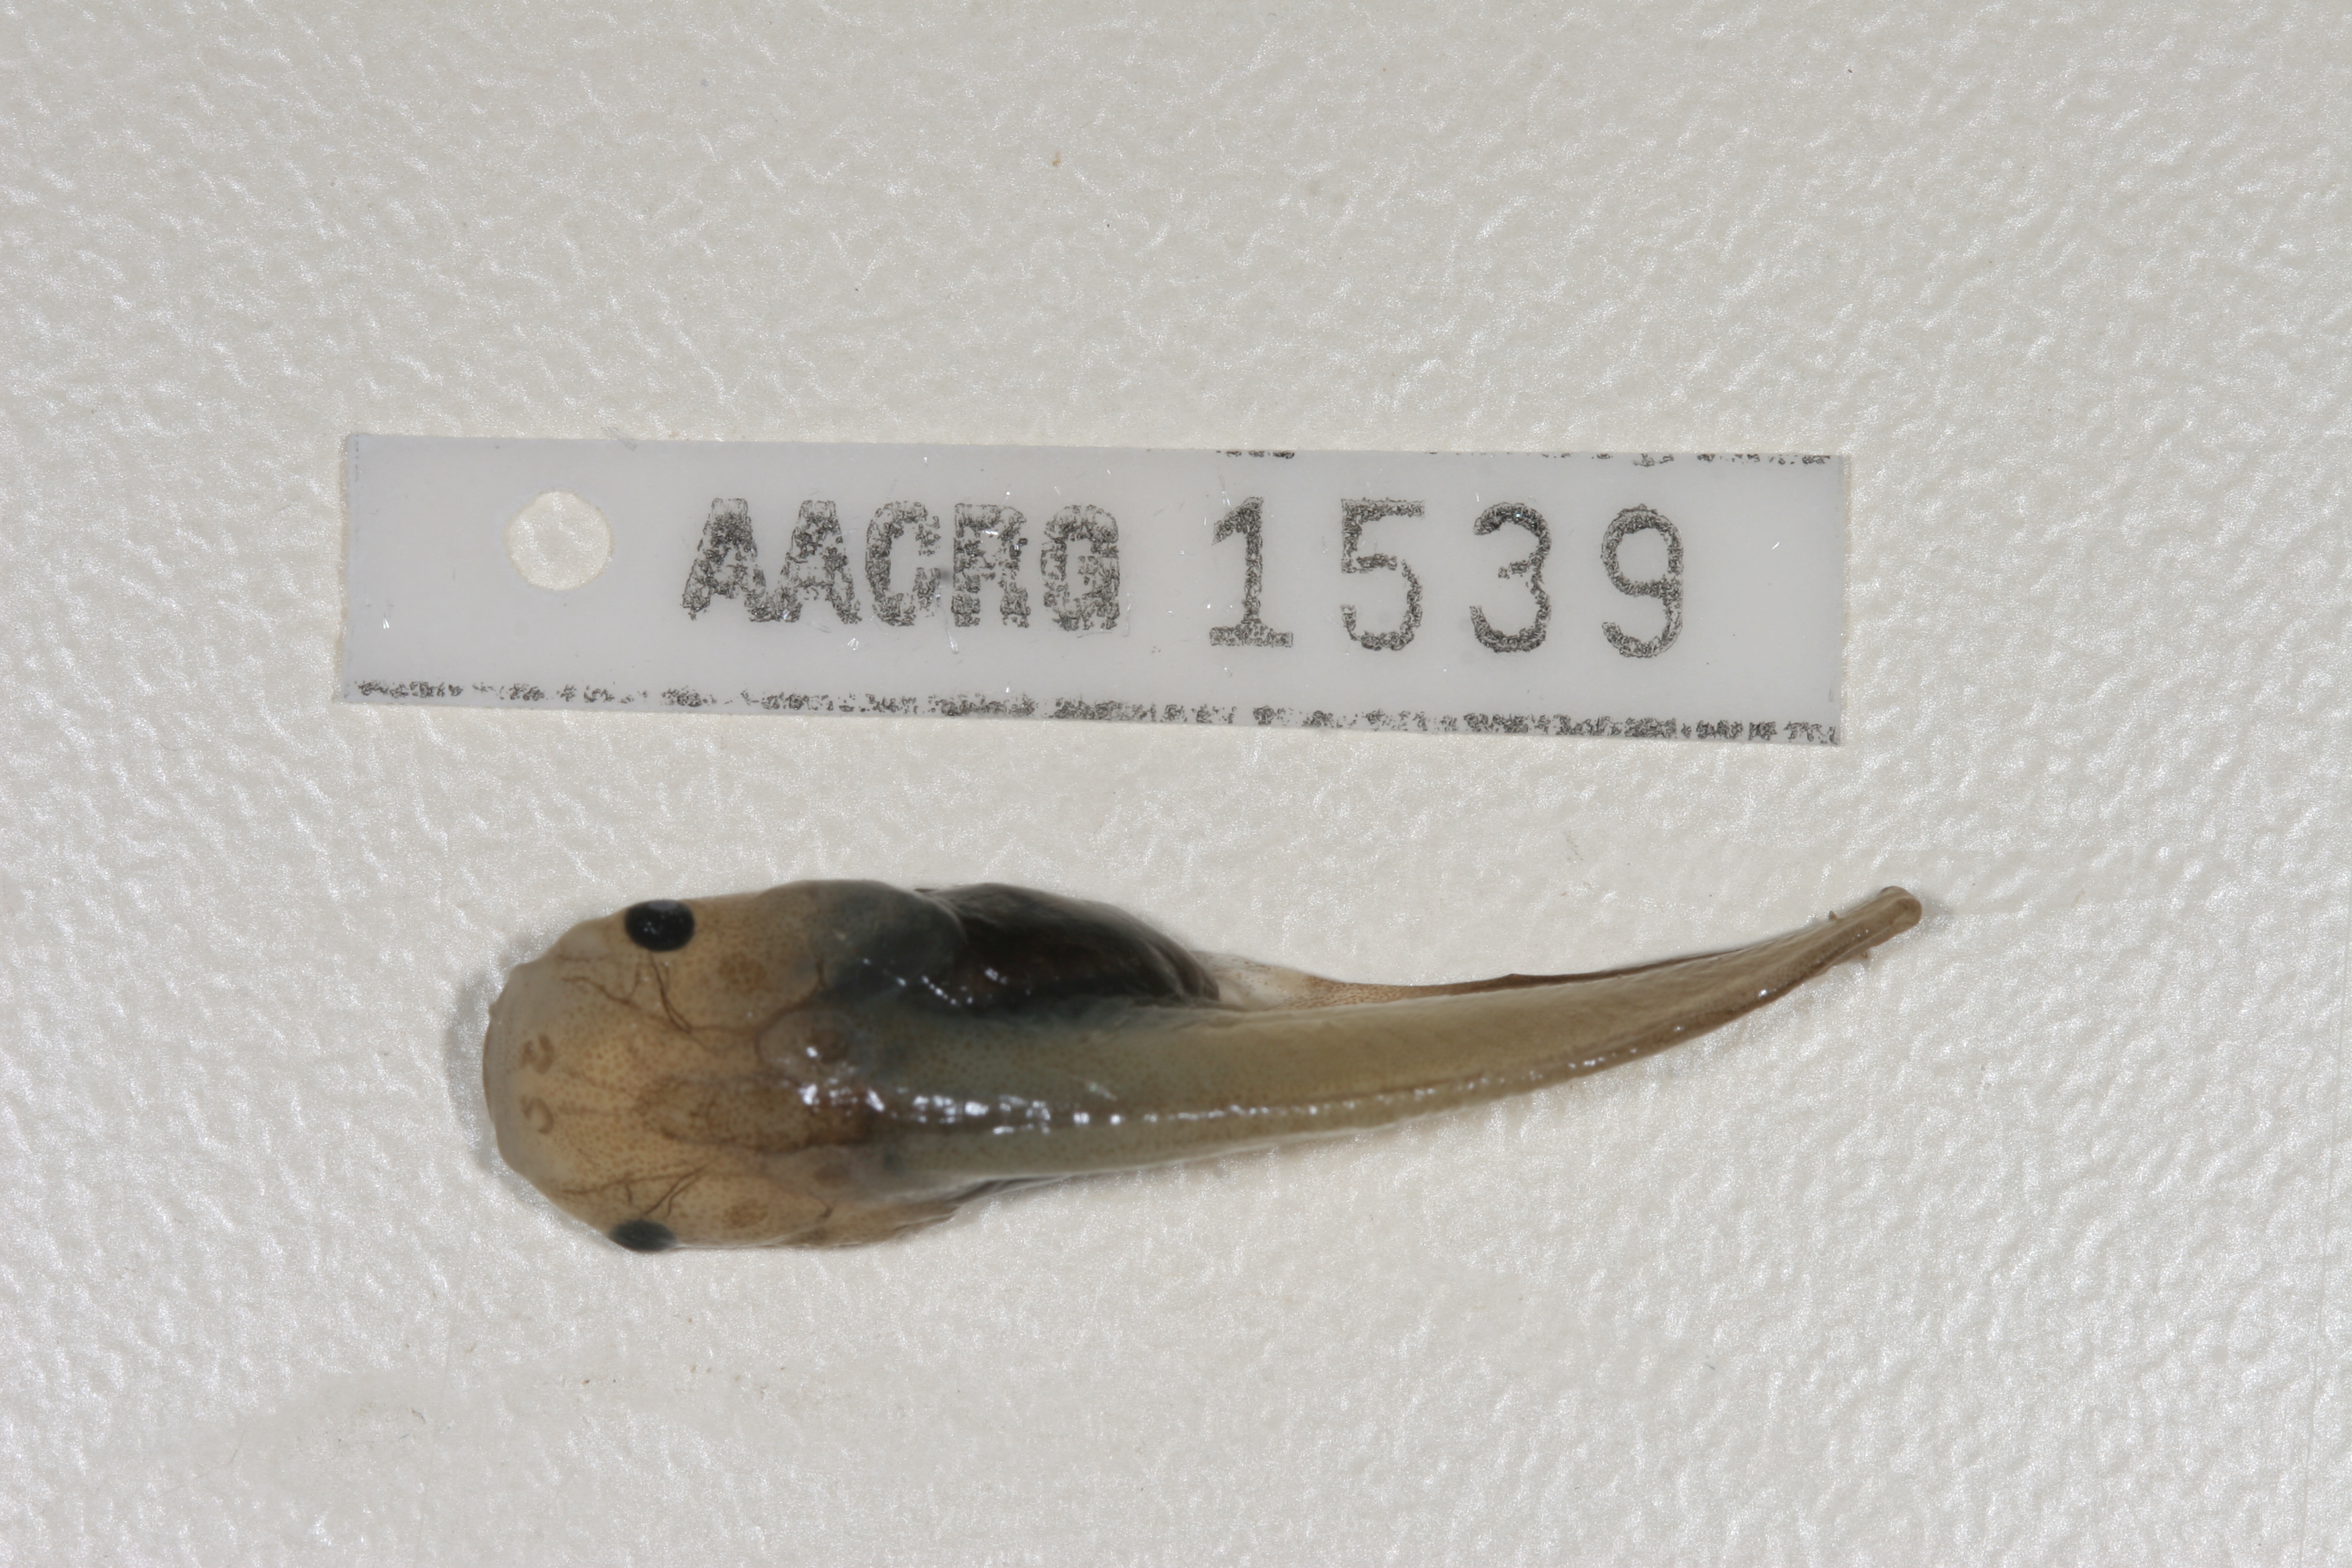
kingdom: Animalia
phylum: Chordata
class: Amphibia
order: Anura
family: Pipidae
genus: Xenopus
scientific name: Xenopus muelleri
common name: Muller's clawed frog
